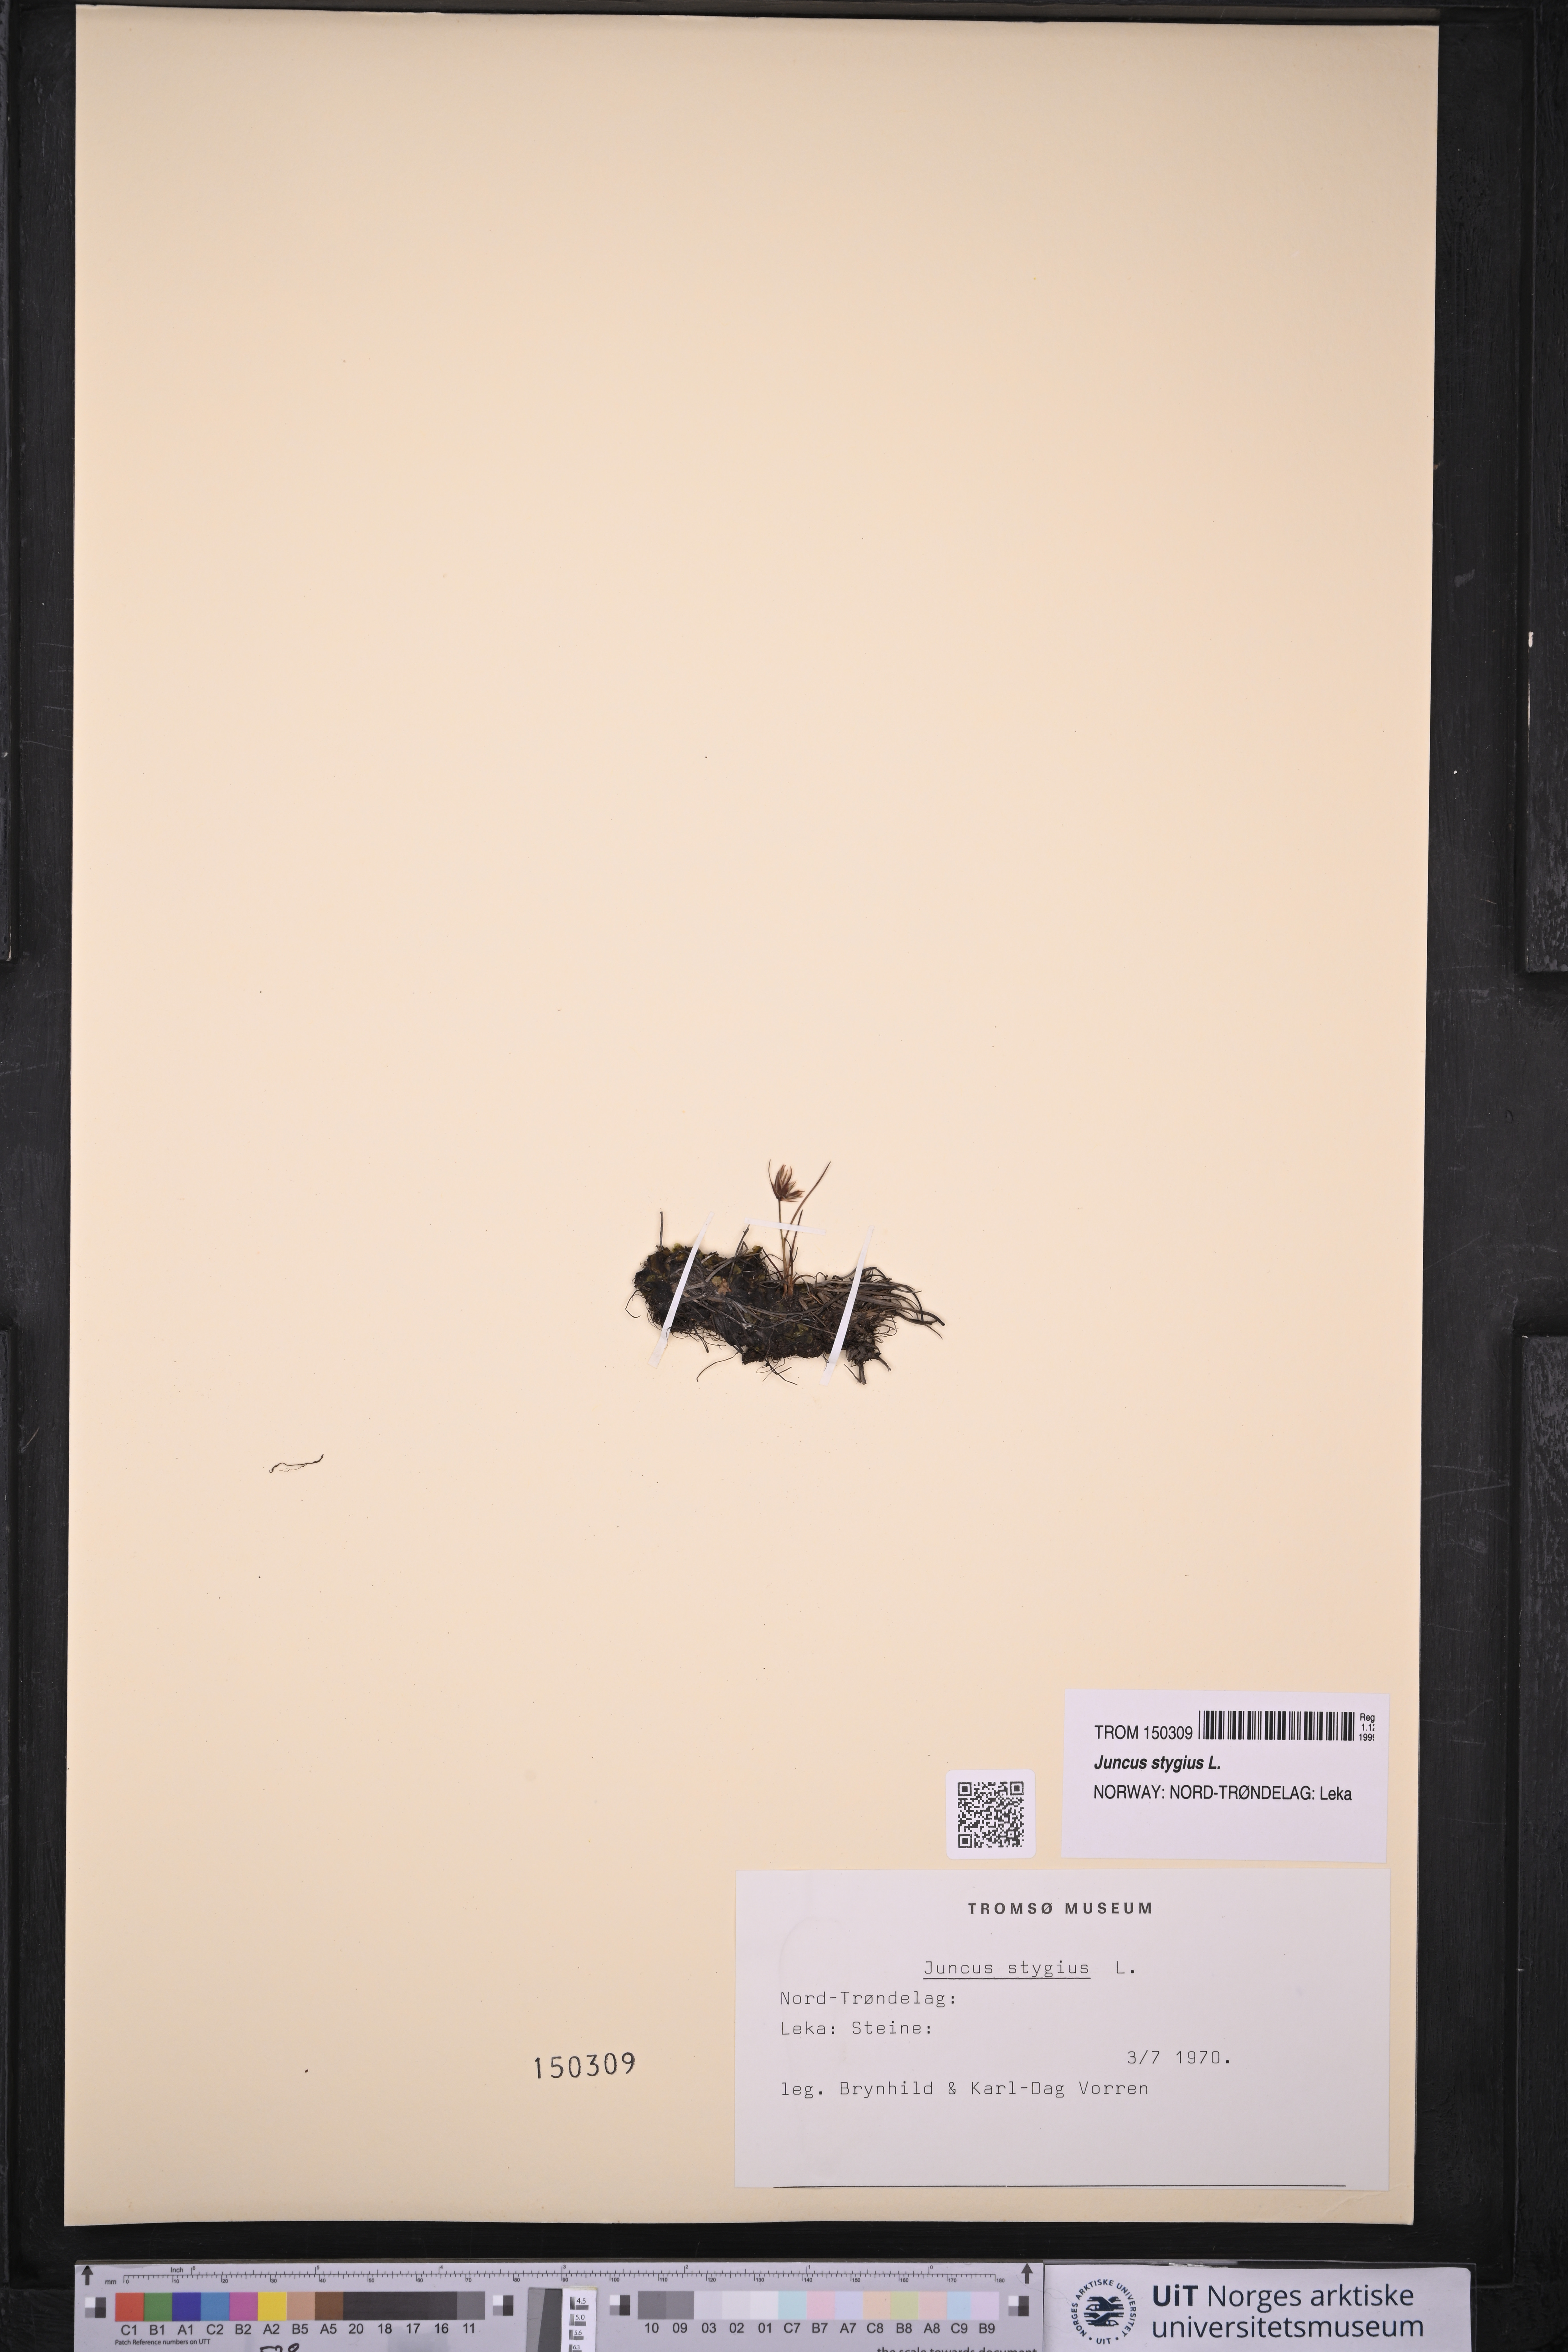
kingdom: Plantae
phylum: Tracheophyta
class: Liliopsida
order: Poales
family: Juncaceae
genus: Juncus
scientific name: Juncus stygius
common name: Bog rush
